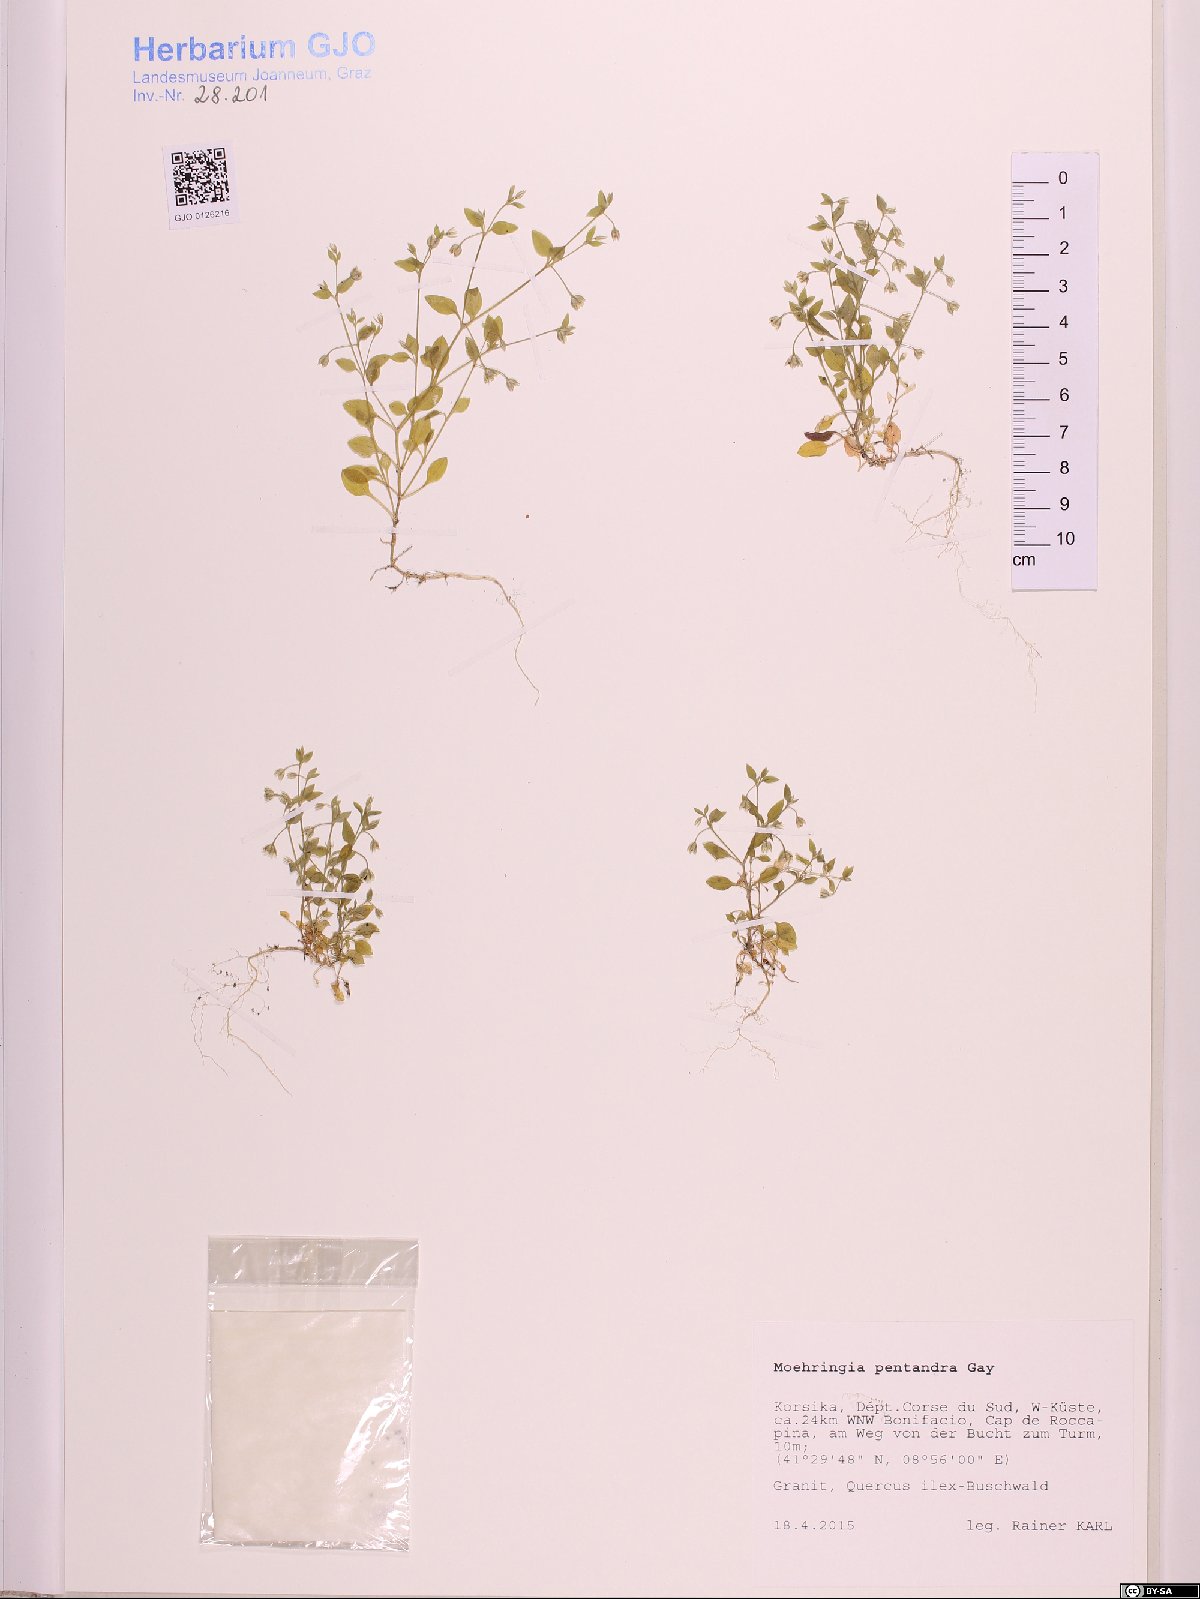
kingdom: Plantae
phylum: Tracheophyta
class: Magnoliopsida
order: Caryophyllales
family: Caryophyllaceae
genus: Moehringia
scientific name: Moehringia pentandra
